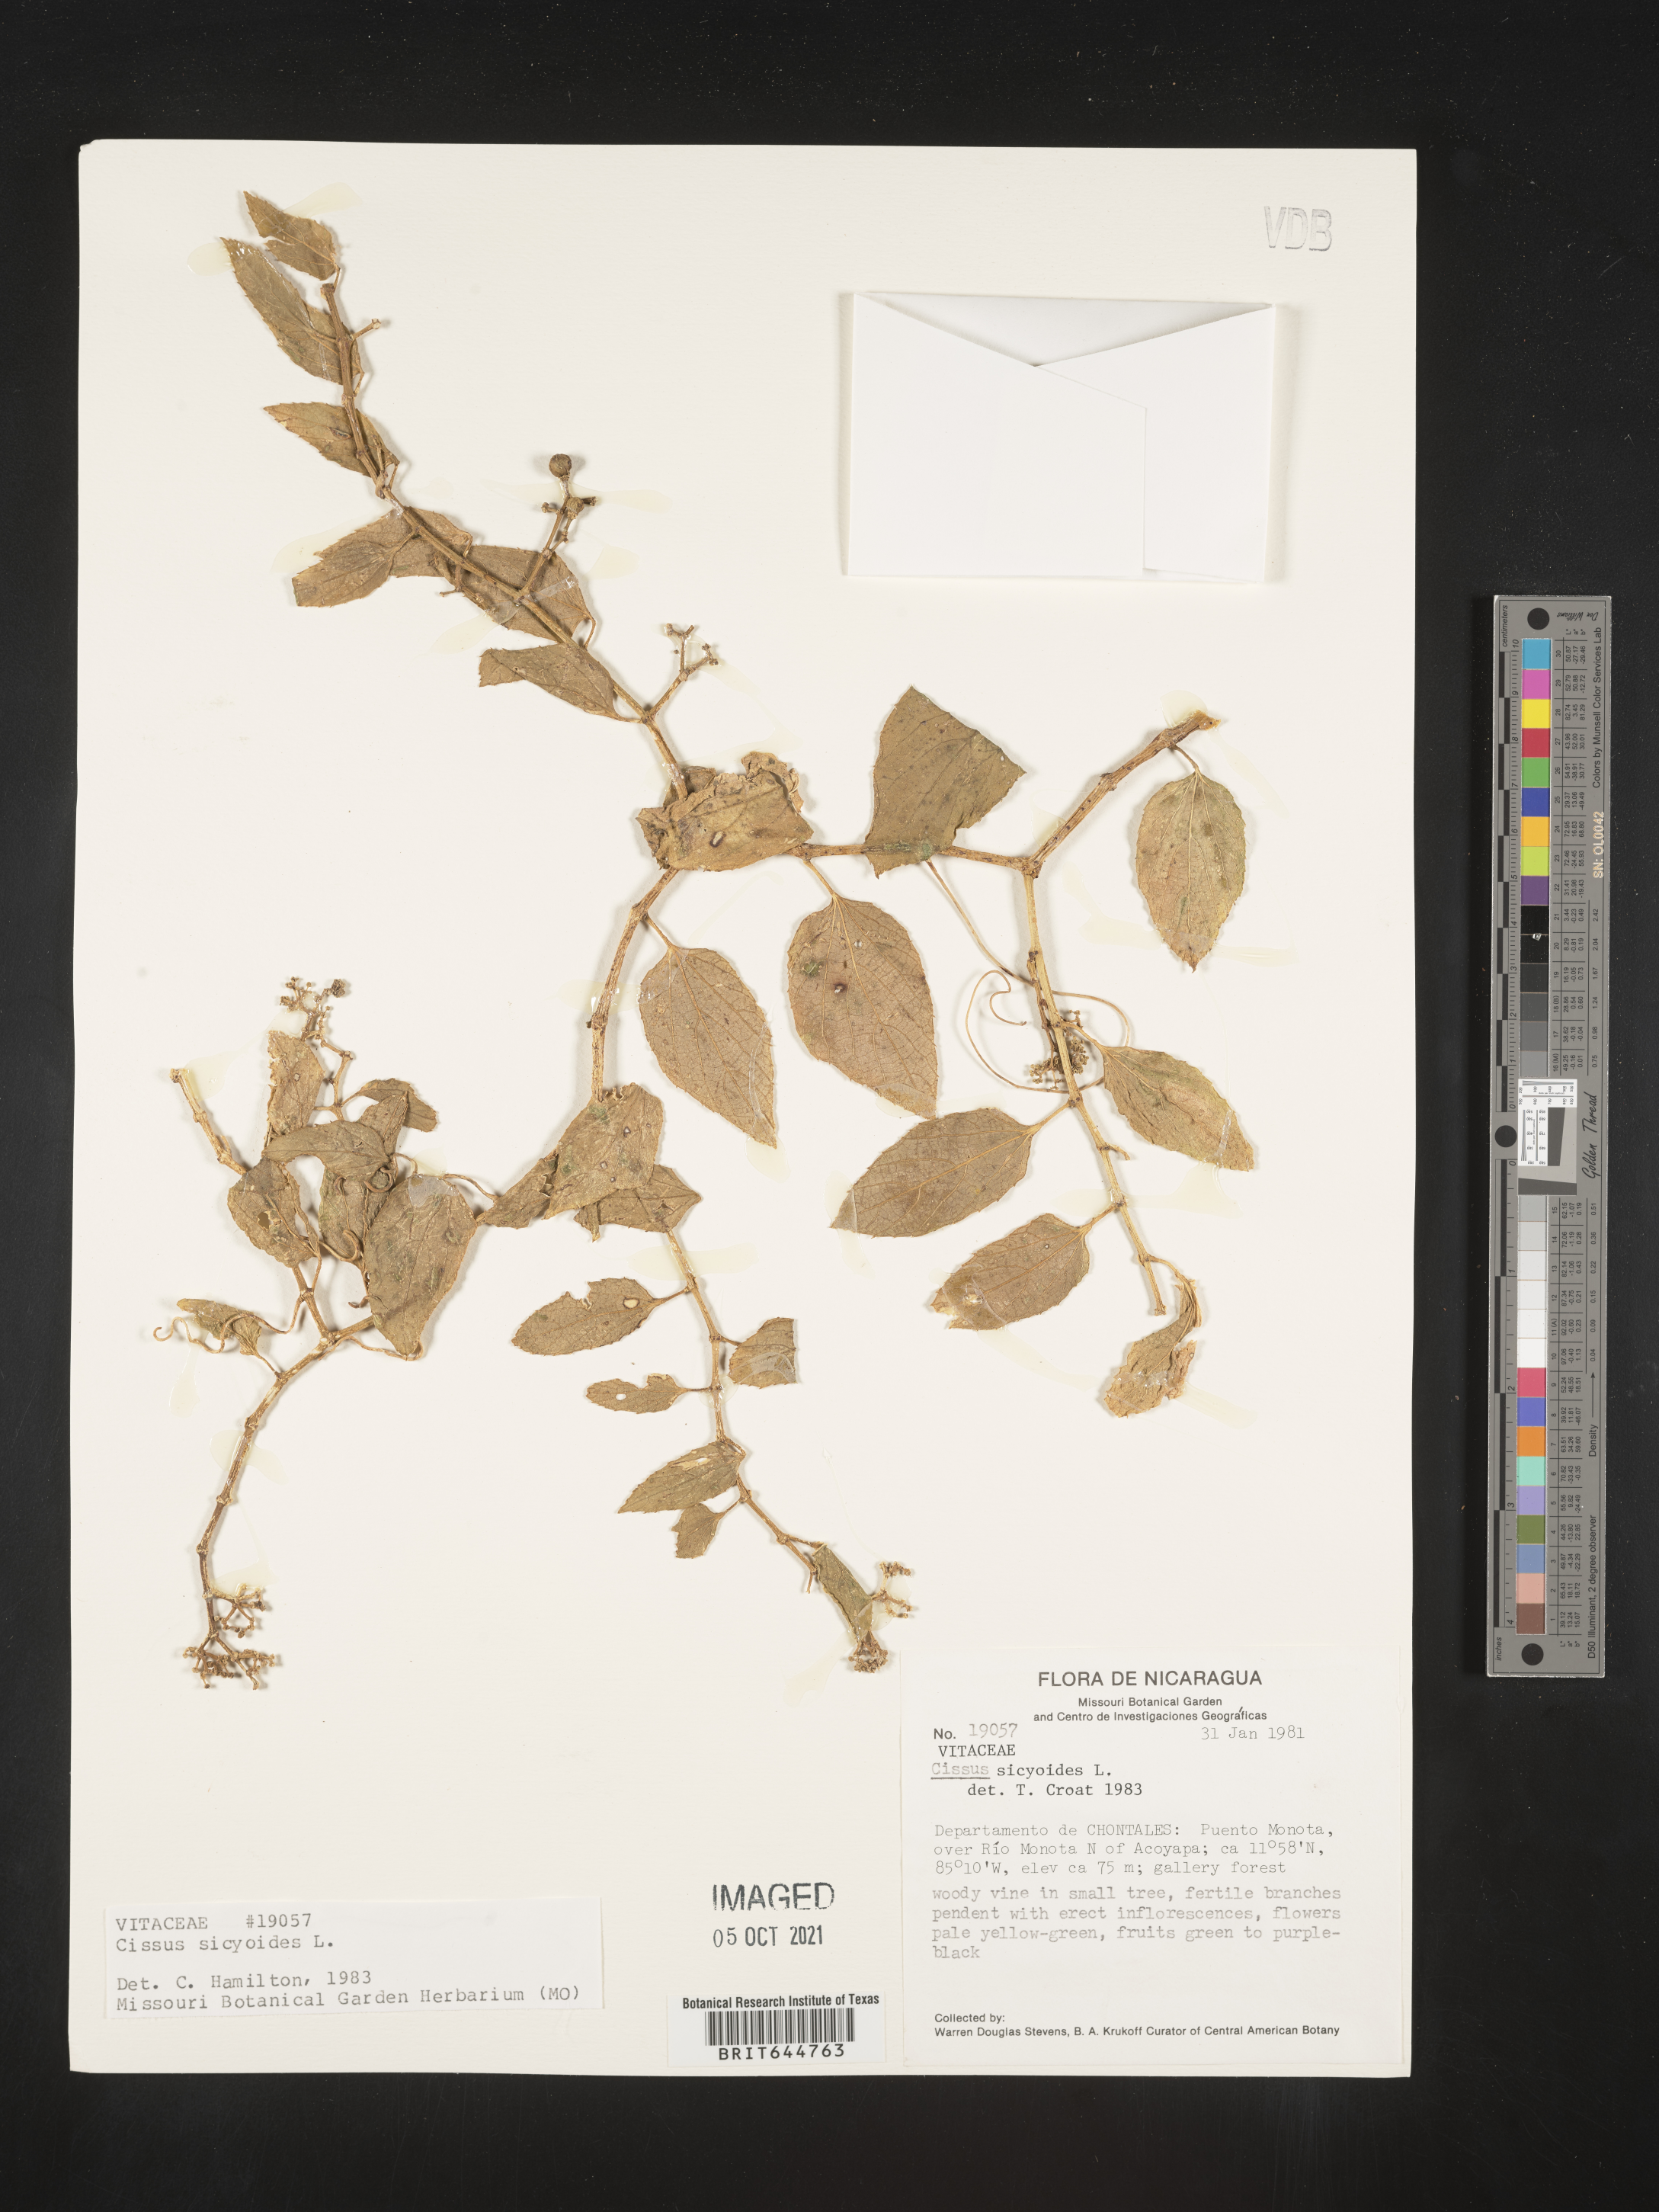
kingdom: Plantae
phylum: Tracheophyta
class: Magnoliopsida
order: Vitales
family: Vitaceae
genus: Cissus
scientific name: Cissus
